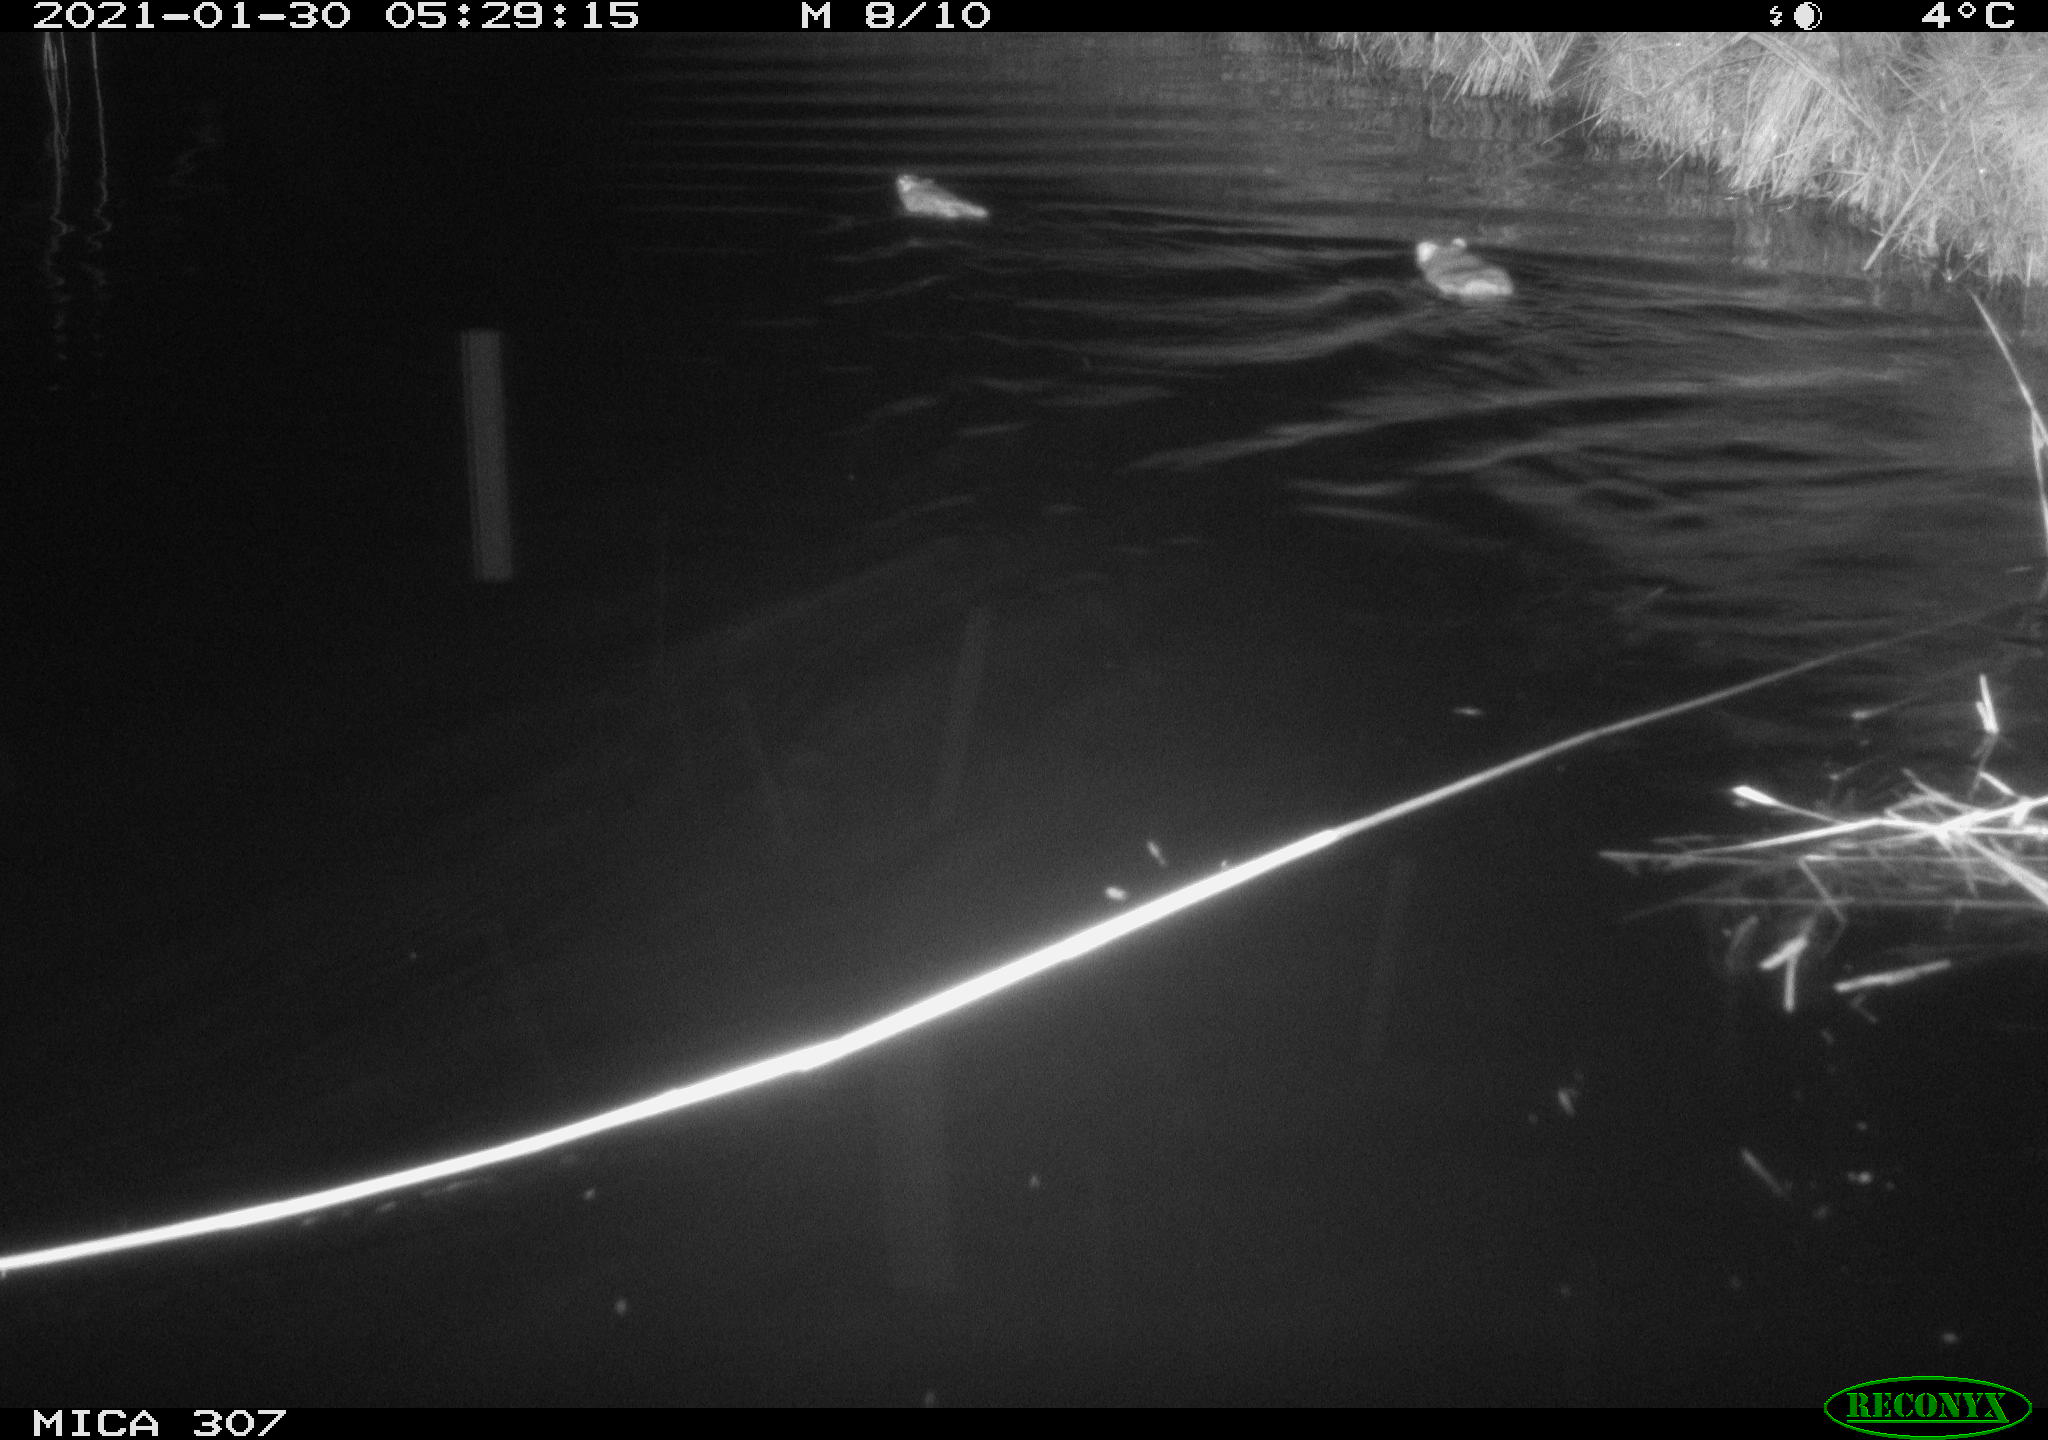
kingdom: Animalia
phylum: Chordata
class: Mammalia
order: Rodentia
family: Muridae
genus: Rattus
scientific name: Rattus norvegicus
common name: Brown rat
